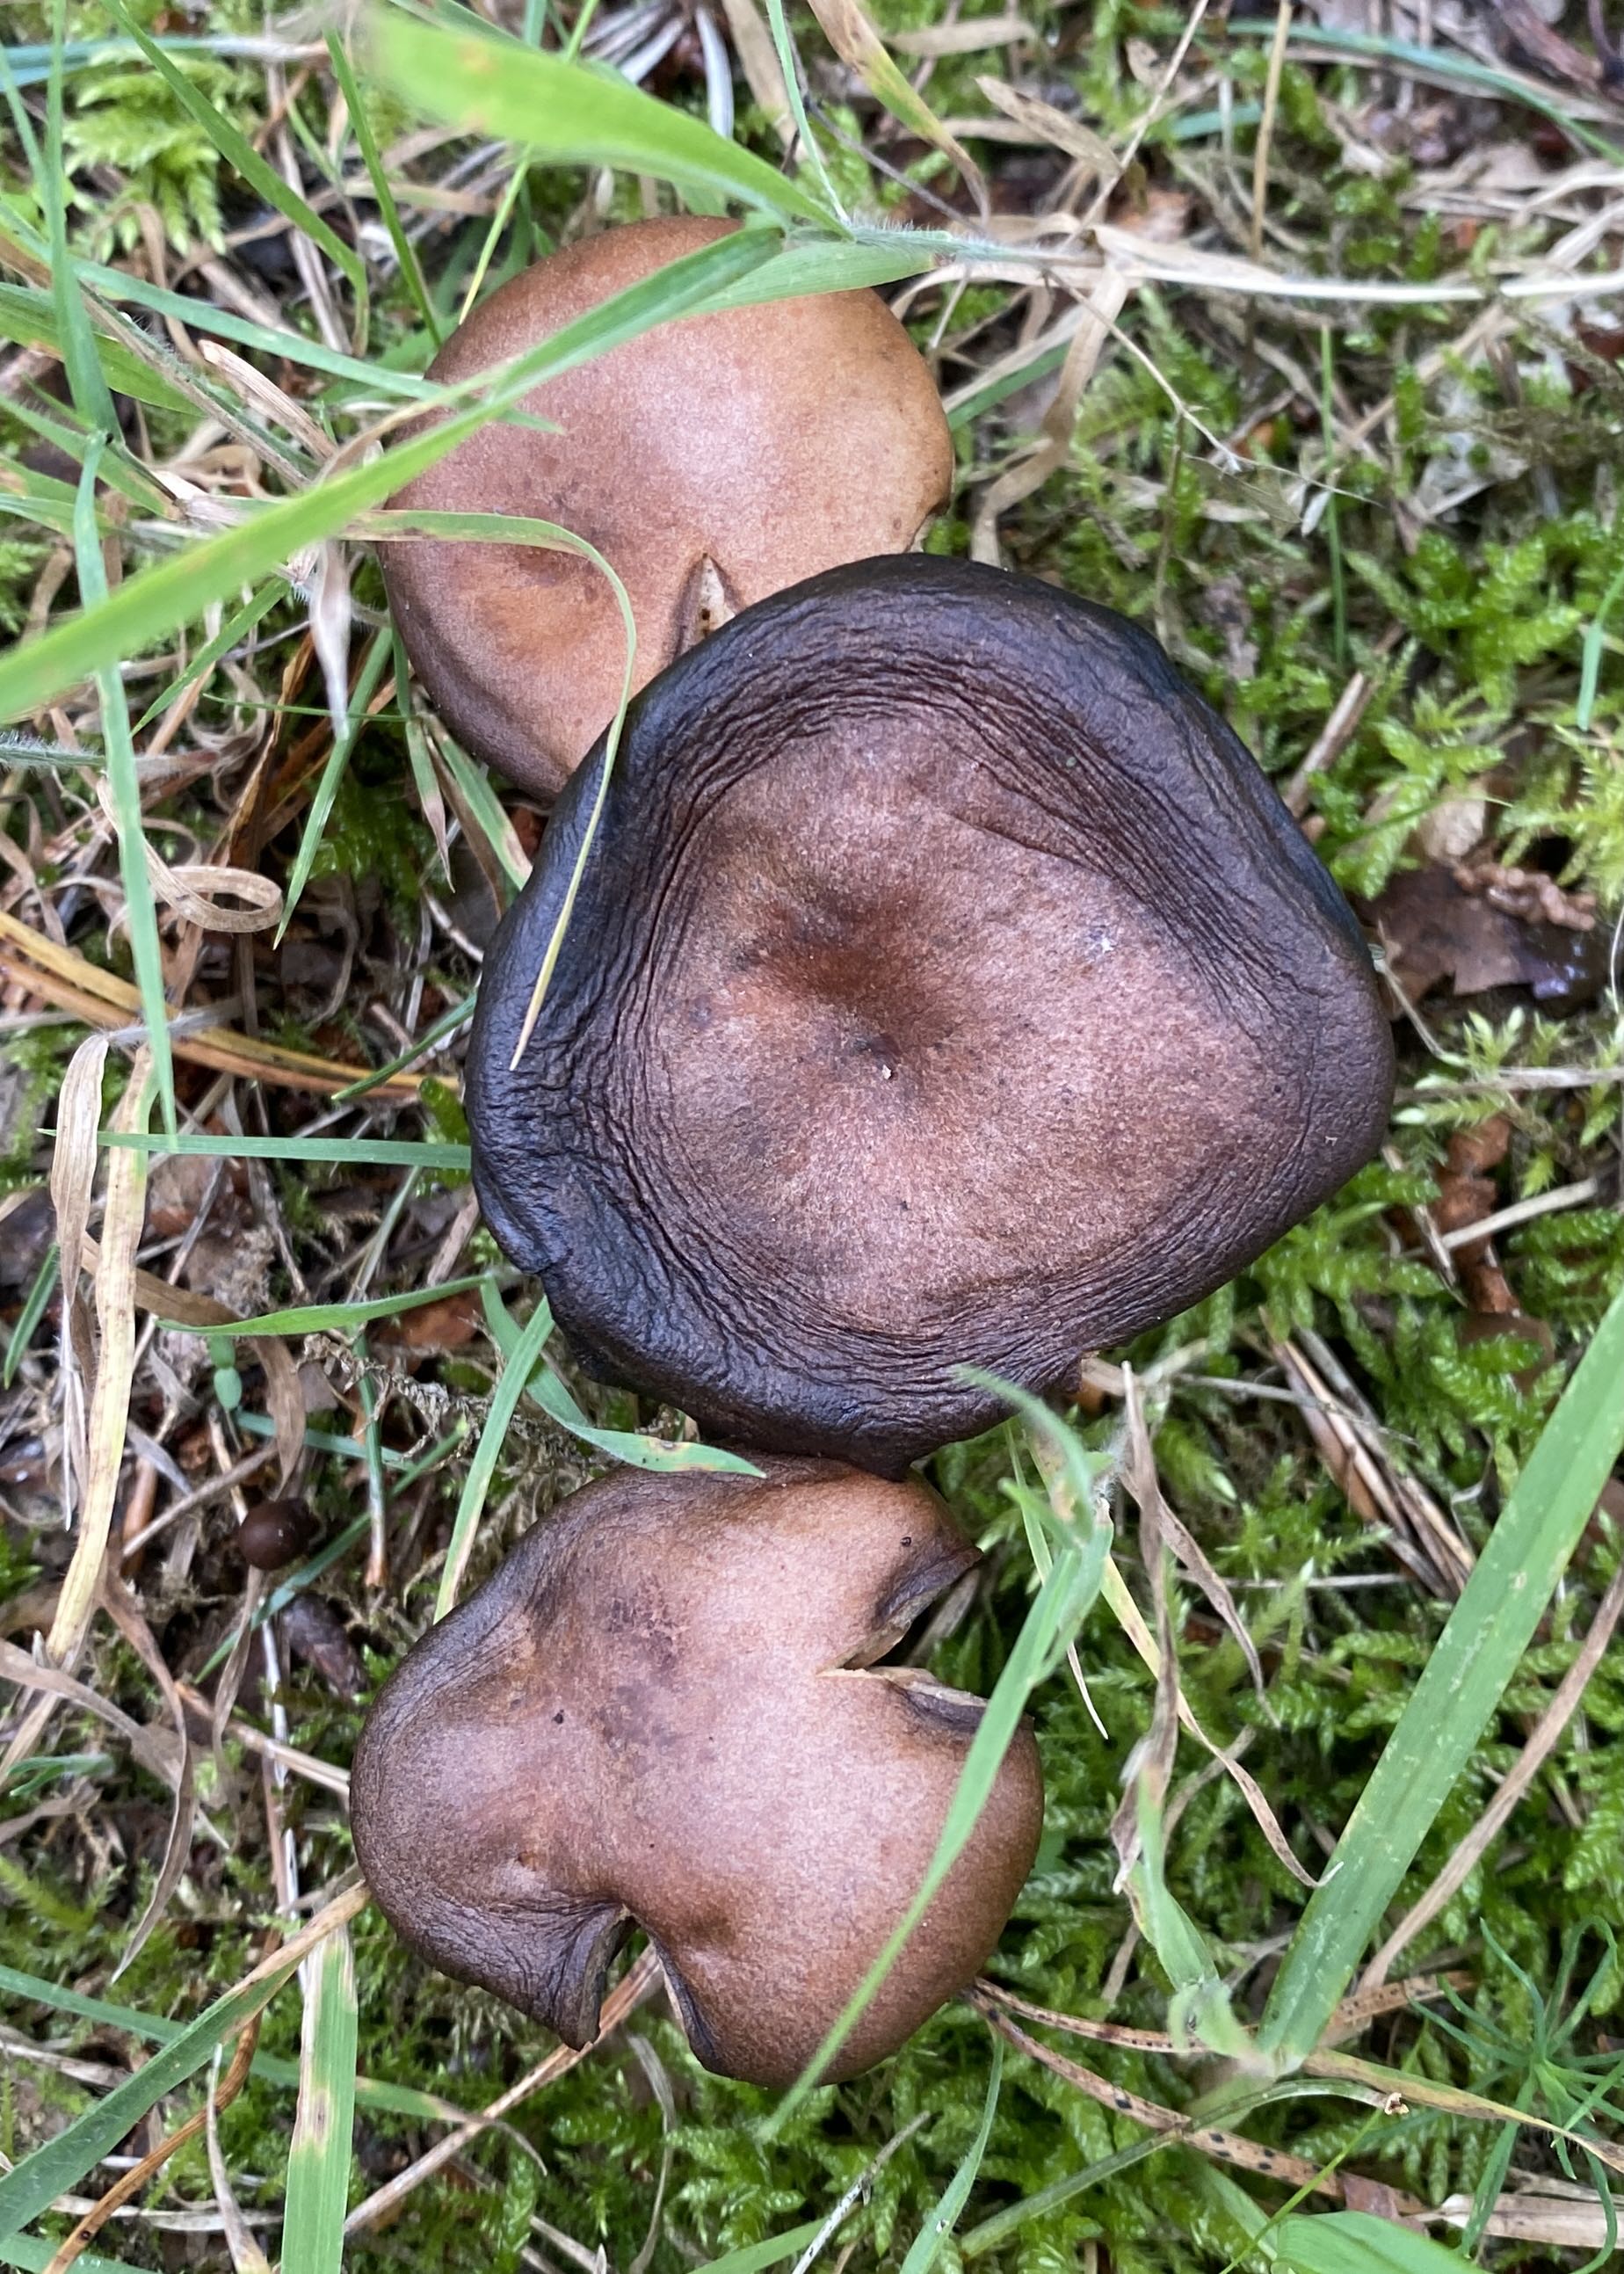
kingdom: Fungi
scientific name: Fungi
